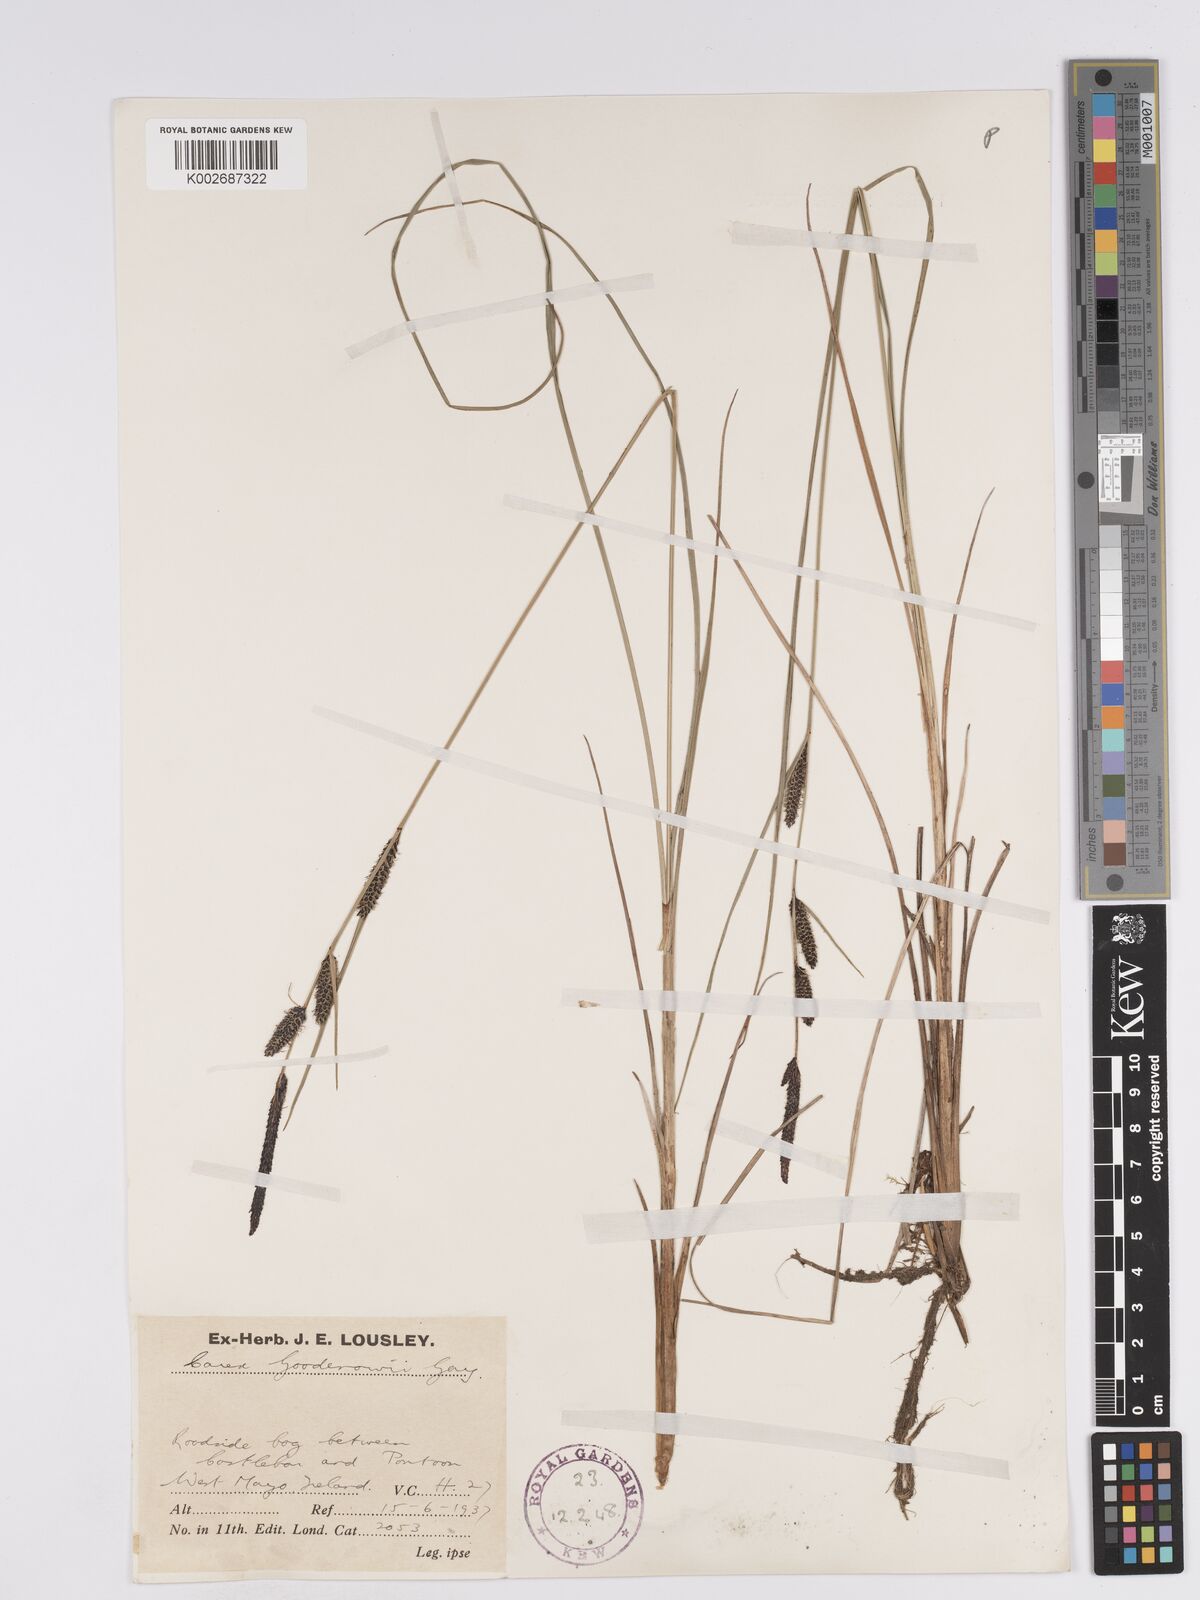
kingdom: Plantae
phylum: Tracheophyta
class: Liliopsida
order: Poales
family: Cyperaceae
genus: Carex
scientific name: Carex nigra
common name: Common sedge
